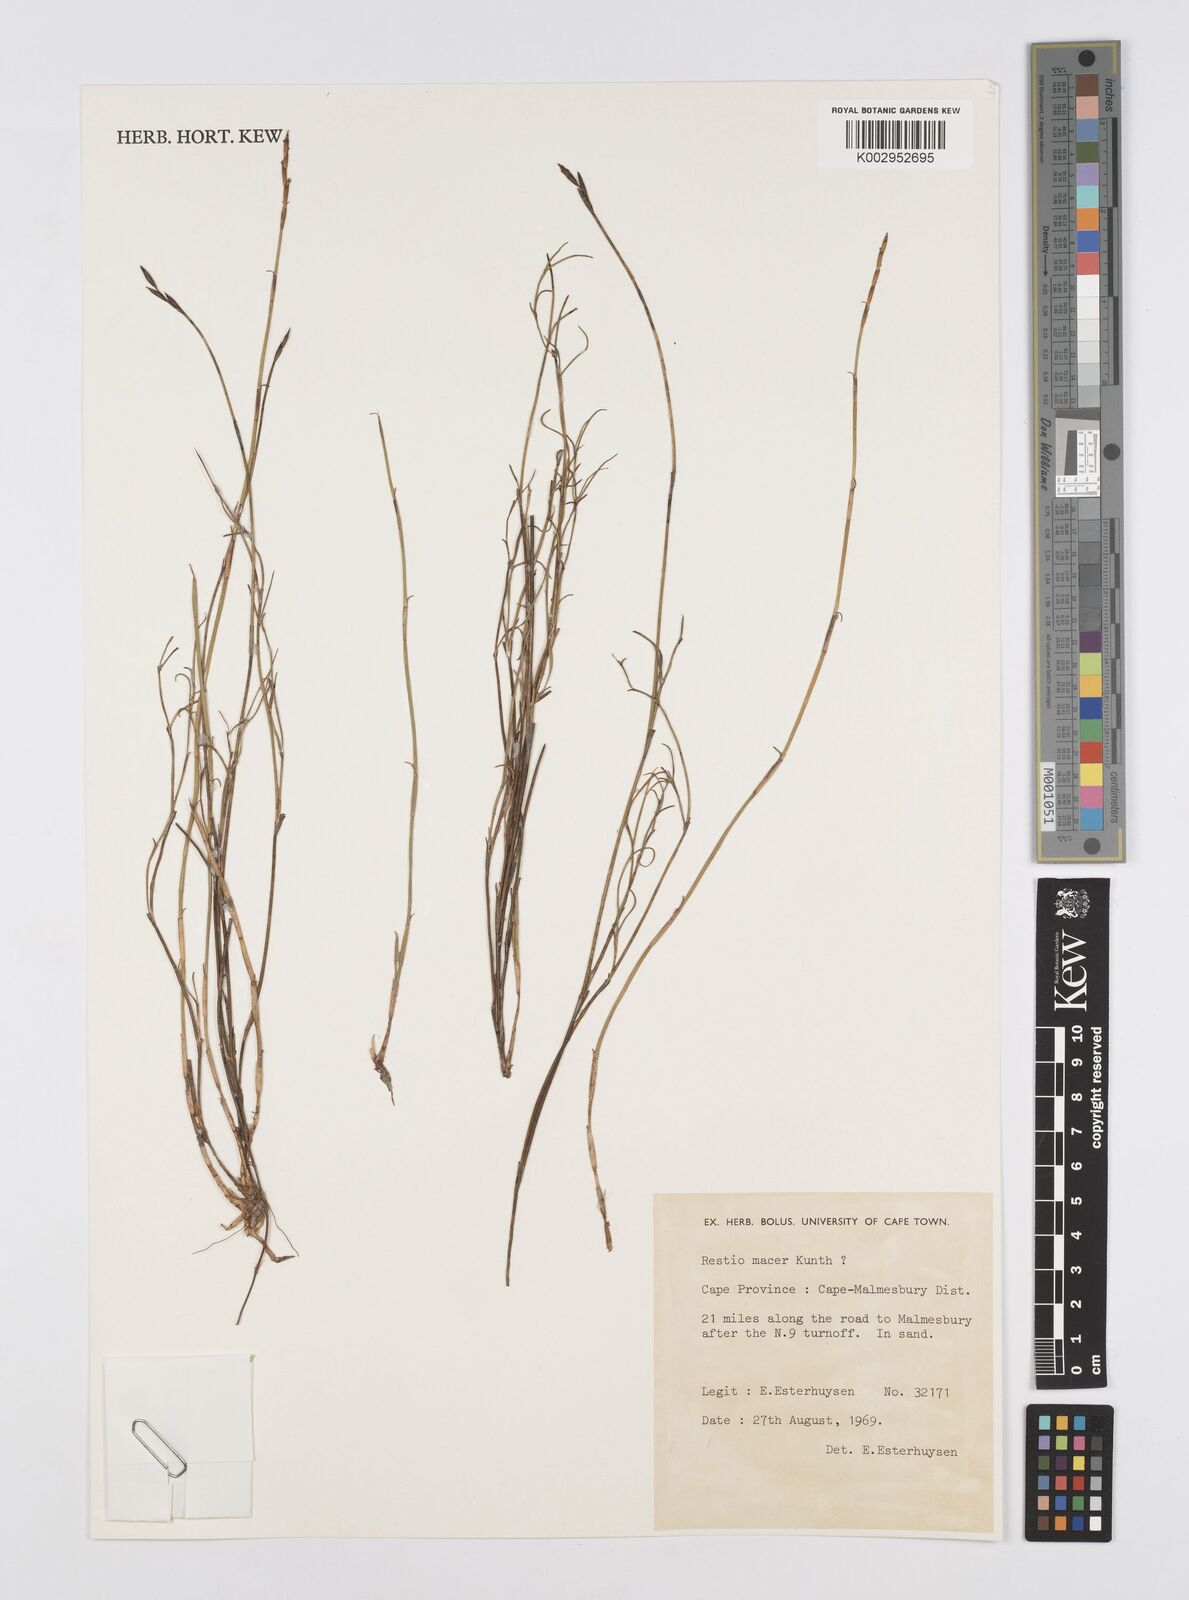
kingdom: Plantae
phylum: Tracheophyta
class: Liliopsida
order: Poales
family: Restionaceae
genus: Restio
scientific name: Restio macer
